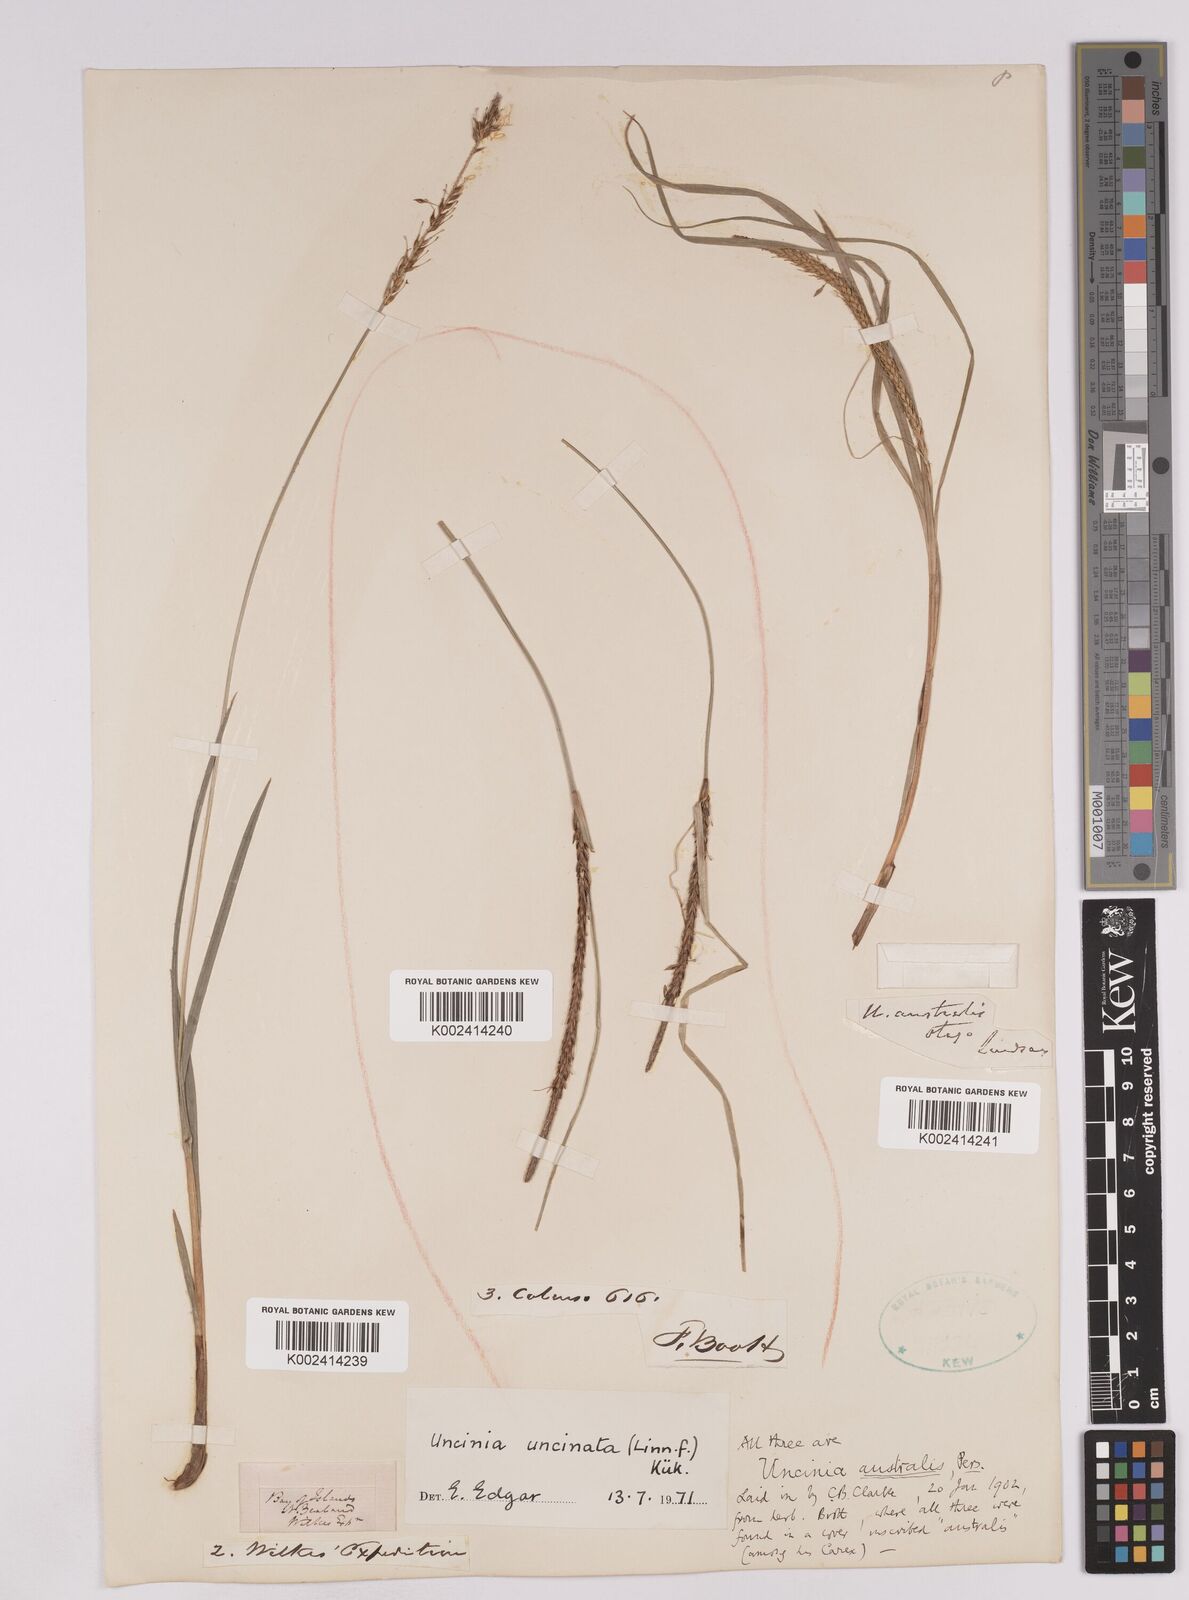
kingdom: Plantae
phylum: Tracheophyta
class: Liliopsida
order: Poales
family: Cyperaceae
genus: Carex
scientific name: Carex uncinata
